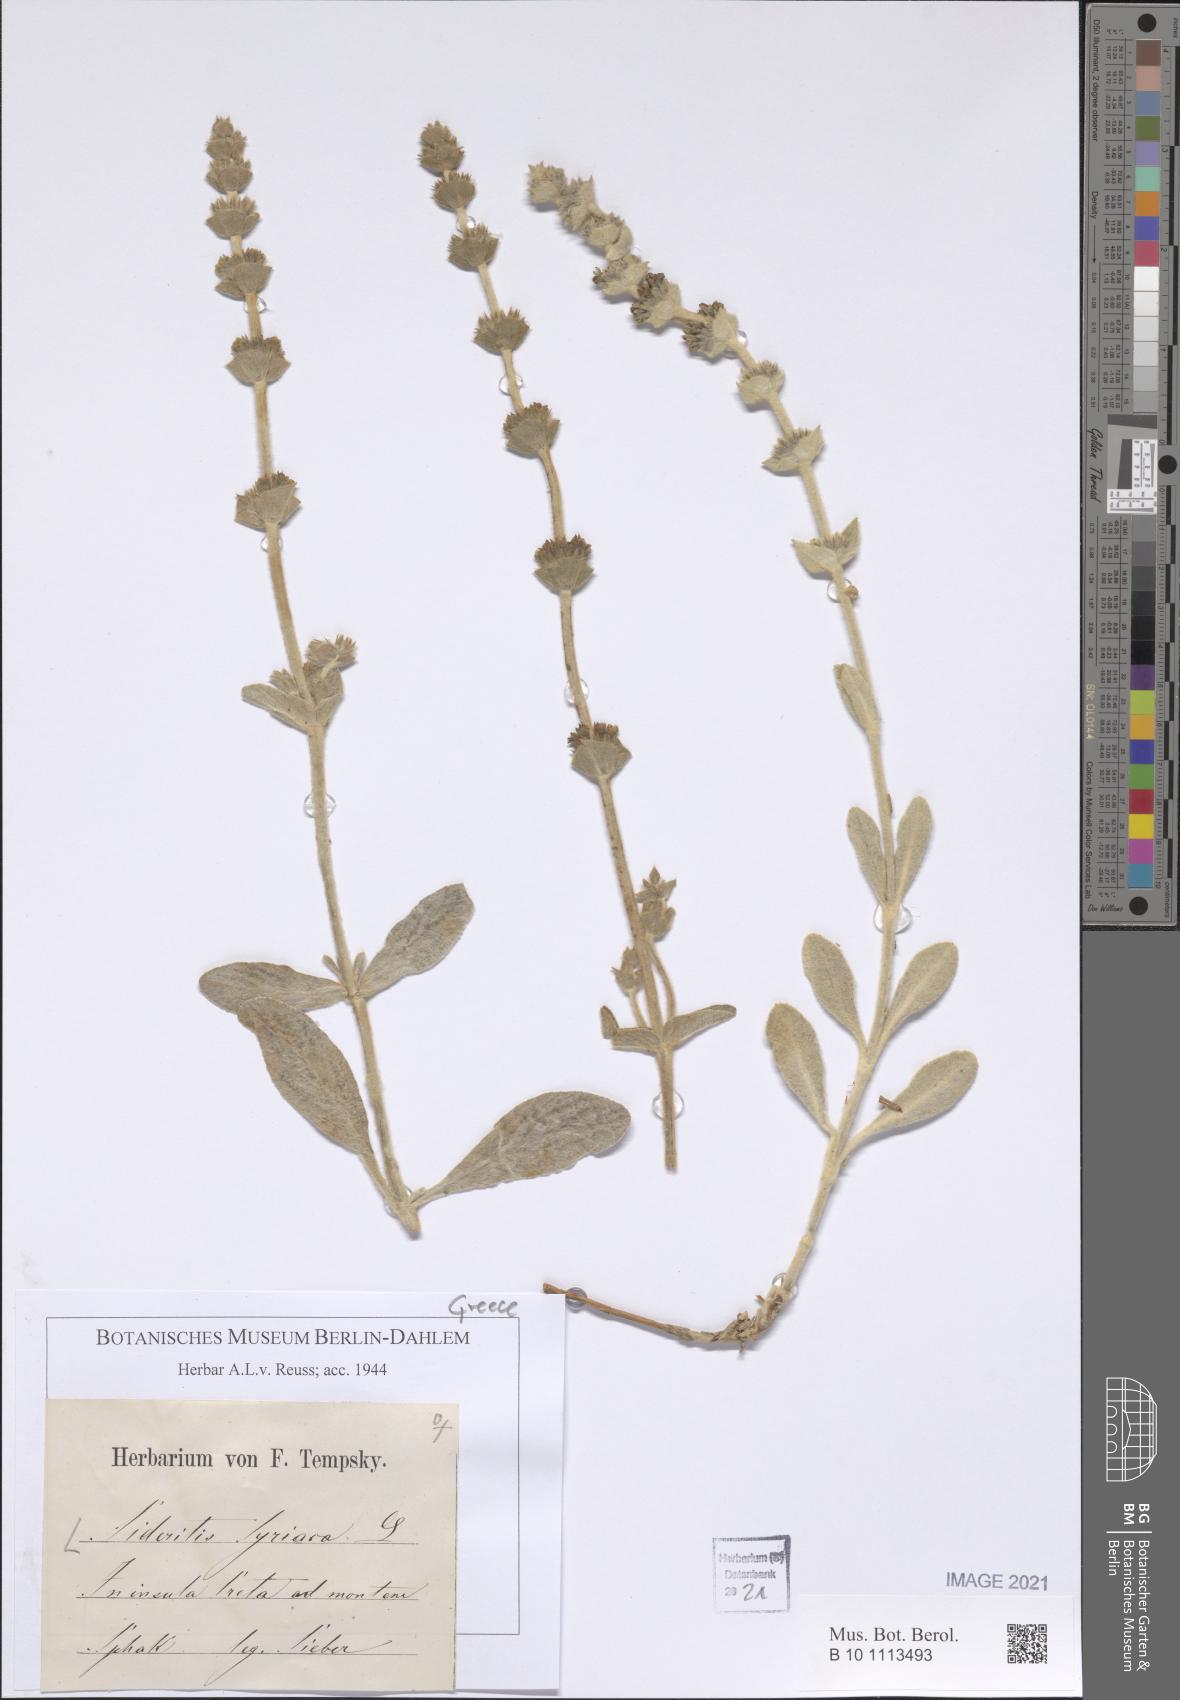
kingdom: Plantae
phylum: Tracheophyta
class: Magnoliopsida
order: Lamiales
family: Lamiaceae
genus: Sideritis
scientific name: Sideritis syriaca
